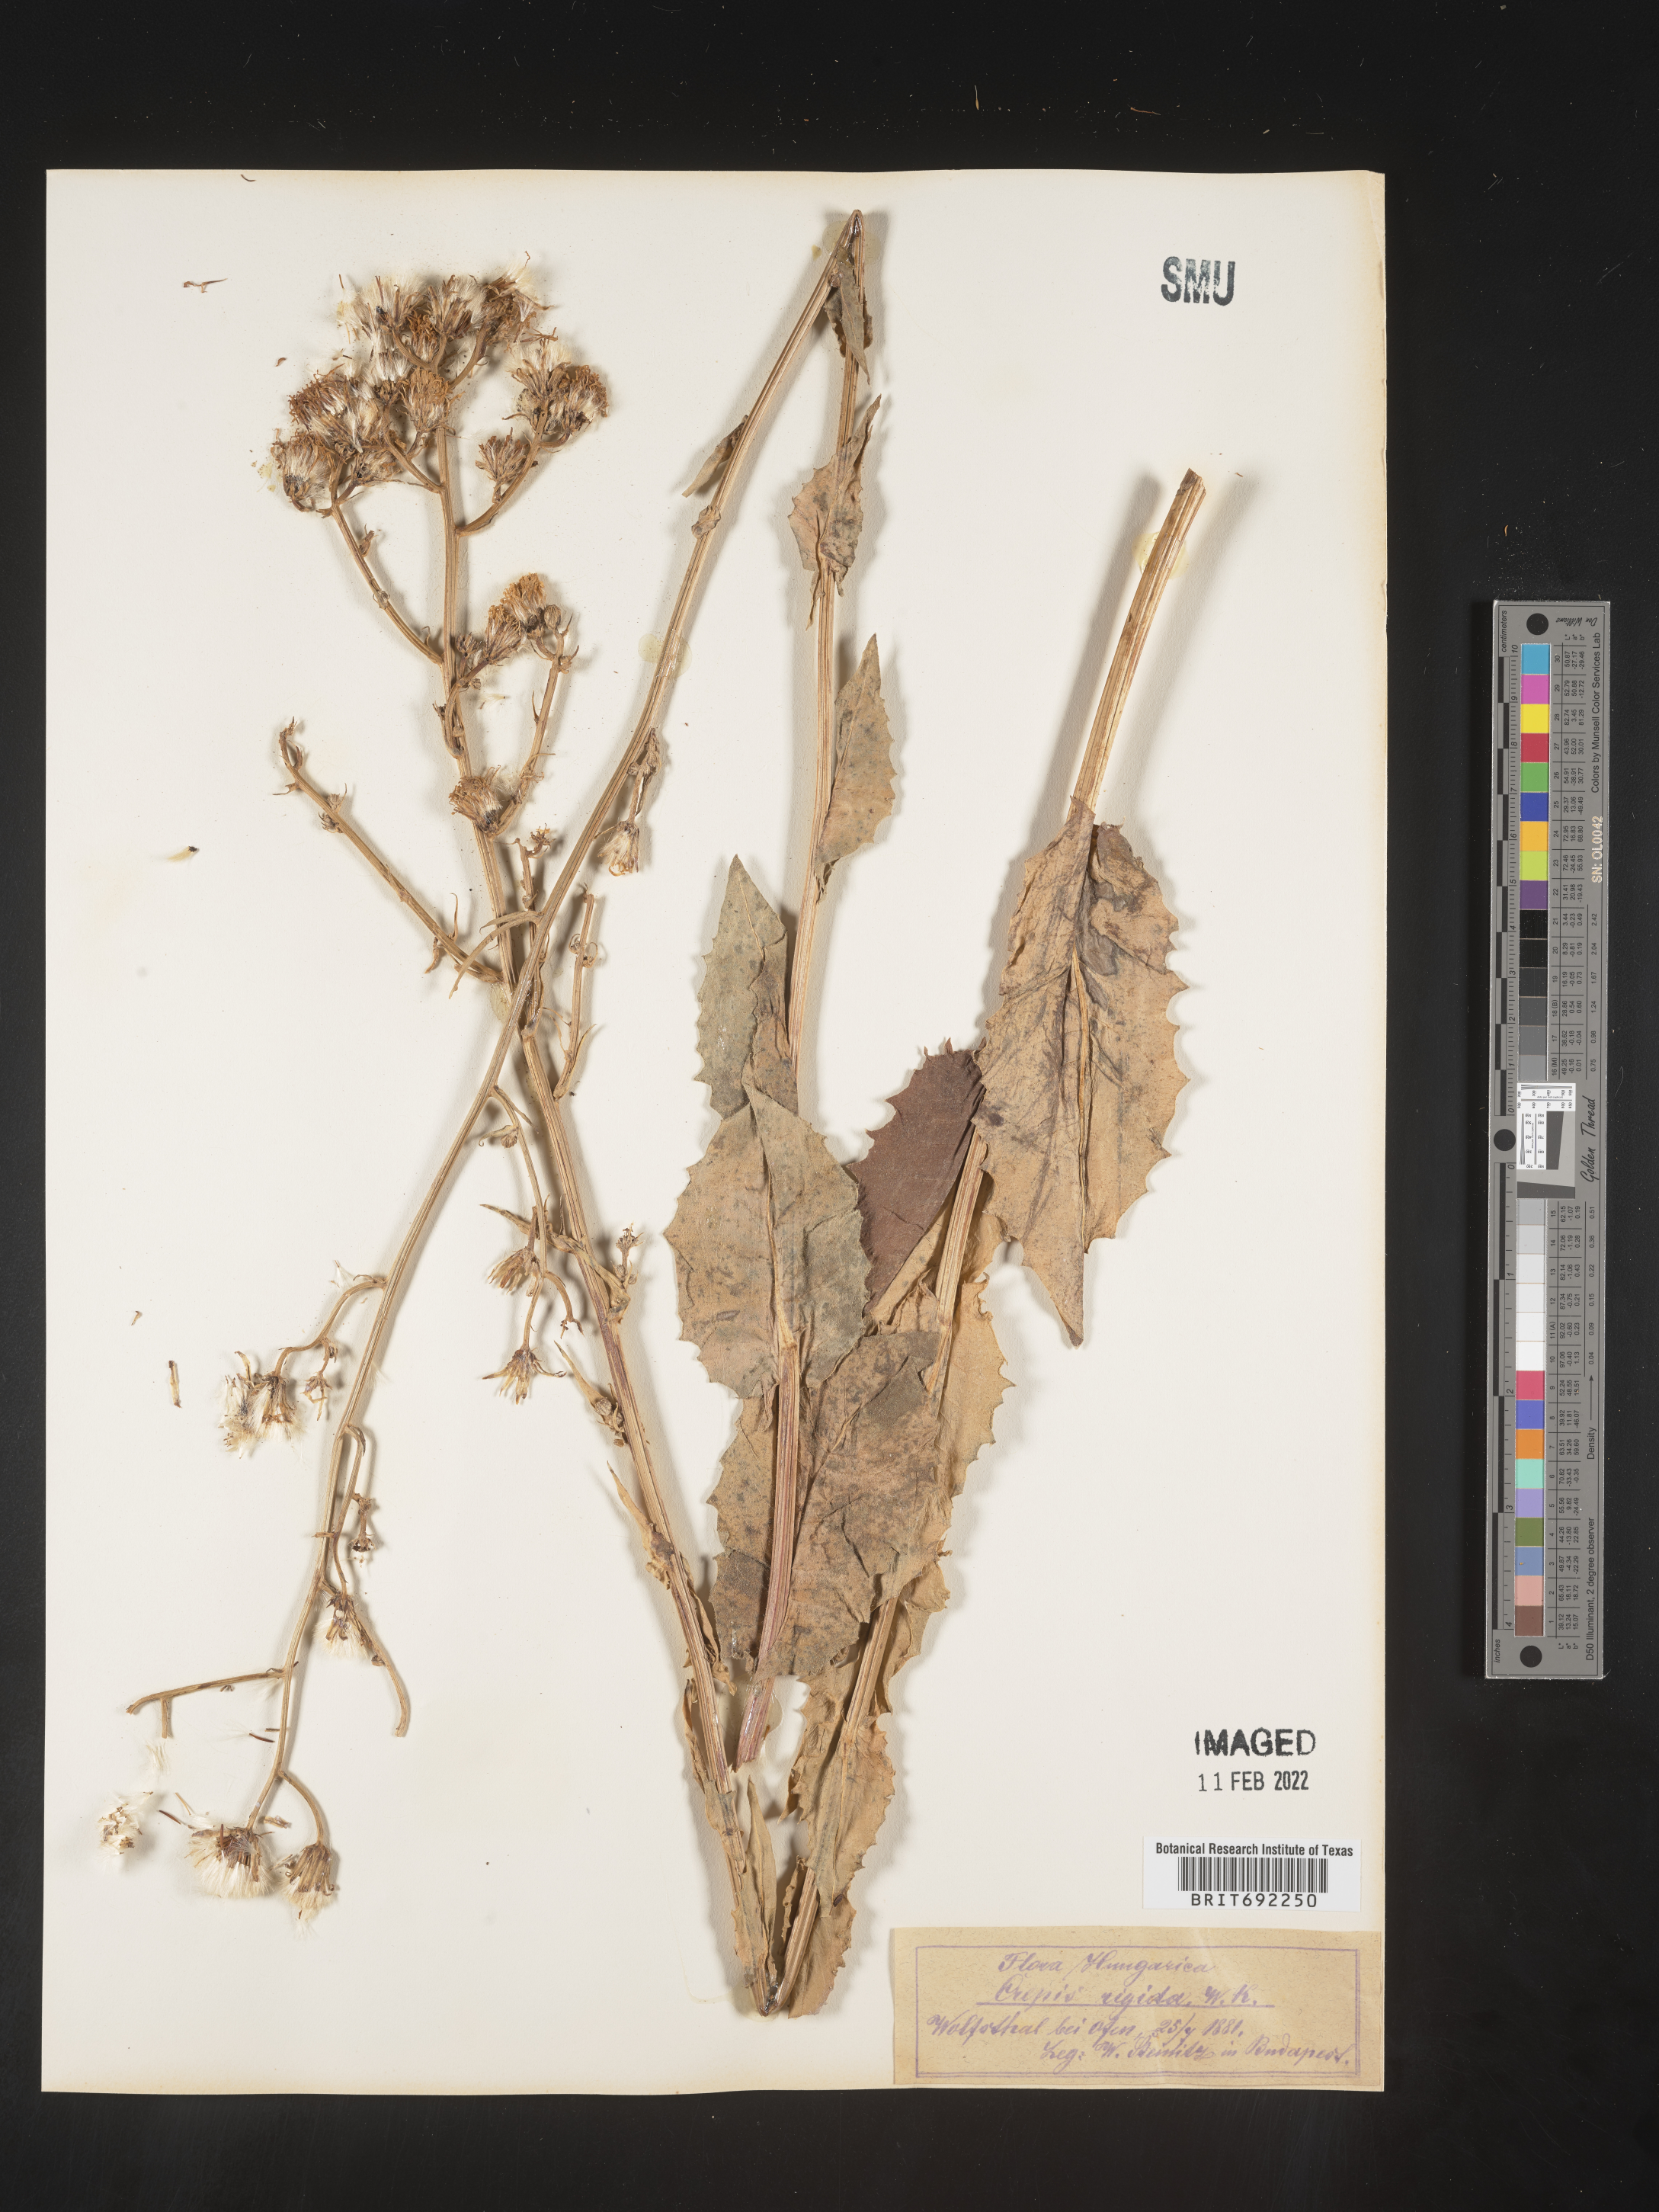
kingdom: Plantae
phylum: Tracheophyta
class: Magnoliopsida
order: Asterales
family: Asteraceae
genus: Crepis
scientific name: Crepis
